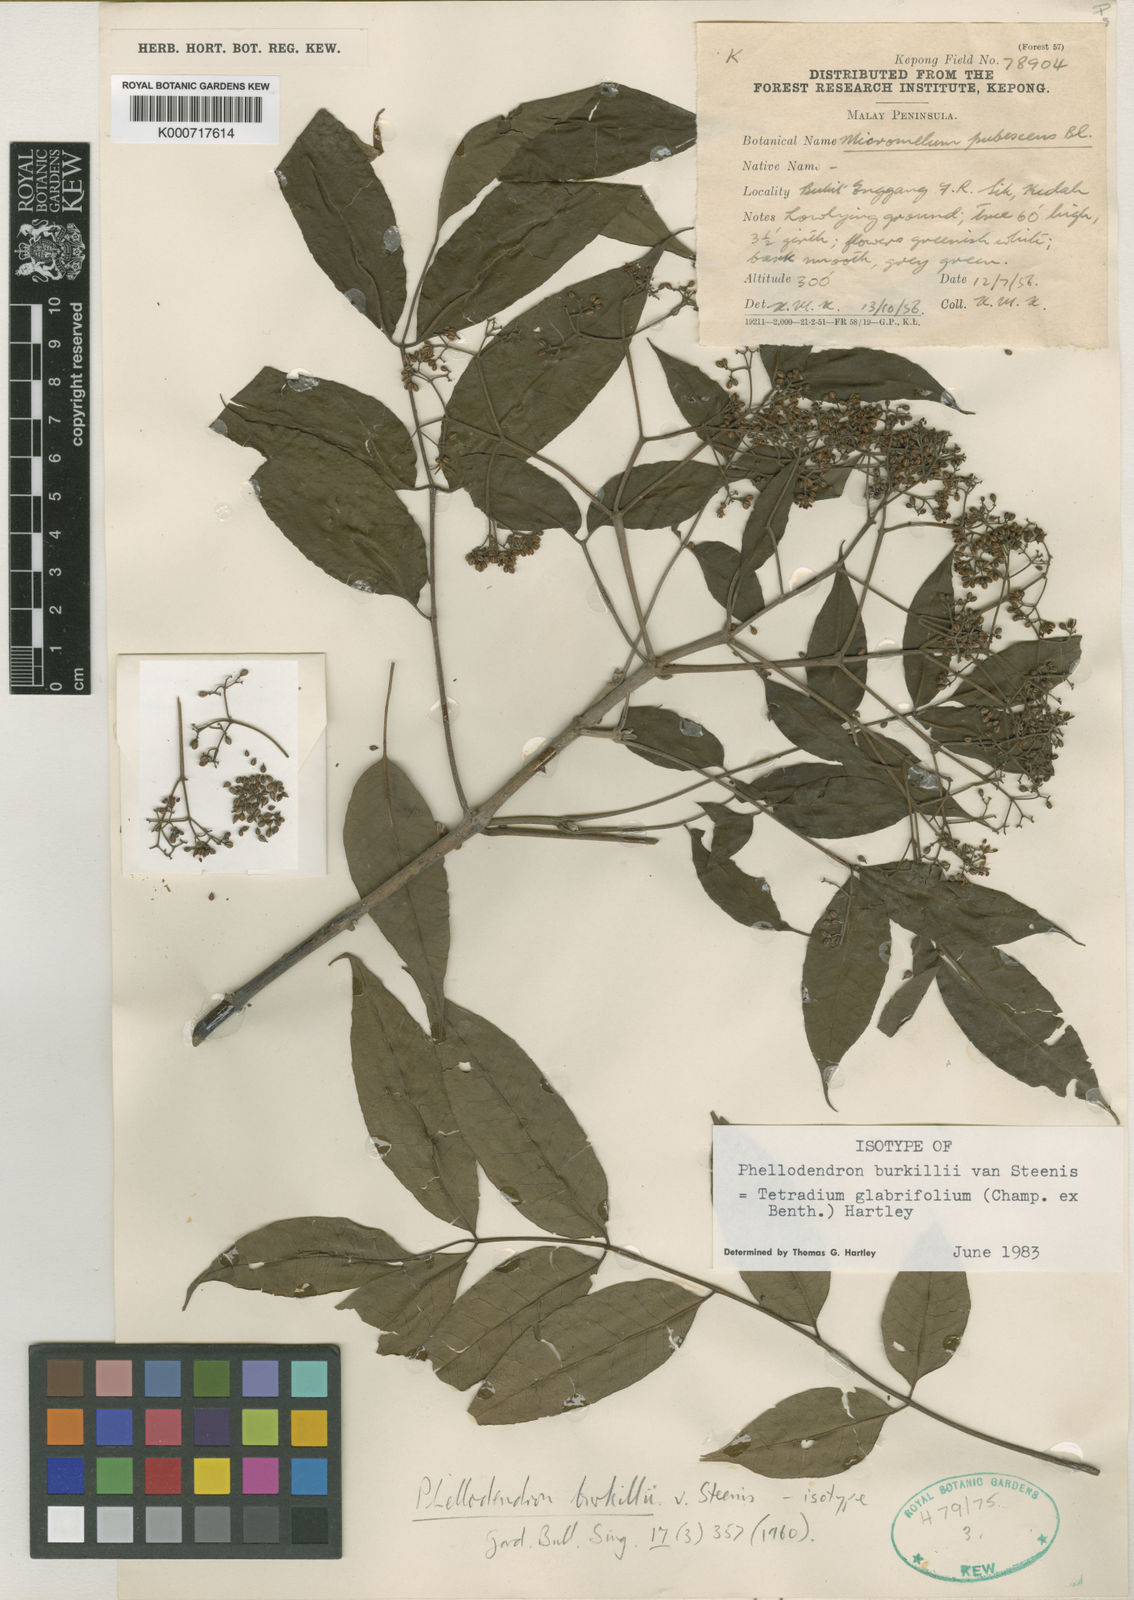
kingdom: Plantae
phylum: Tracheophyta
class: Magnoliopsida
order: Sapindales
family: Rutaceae
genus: Tetradium
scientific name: Tetradium glabrifolium
